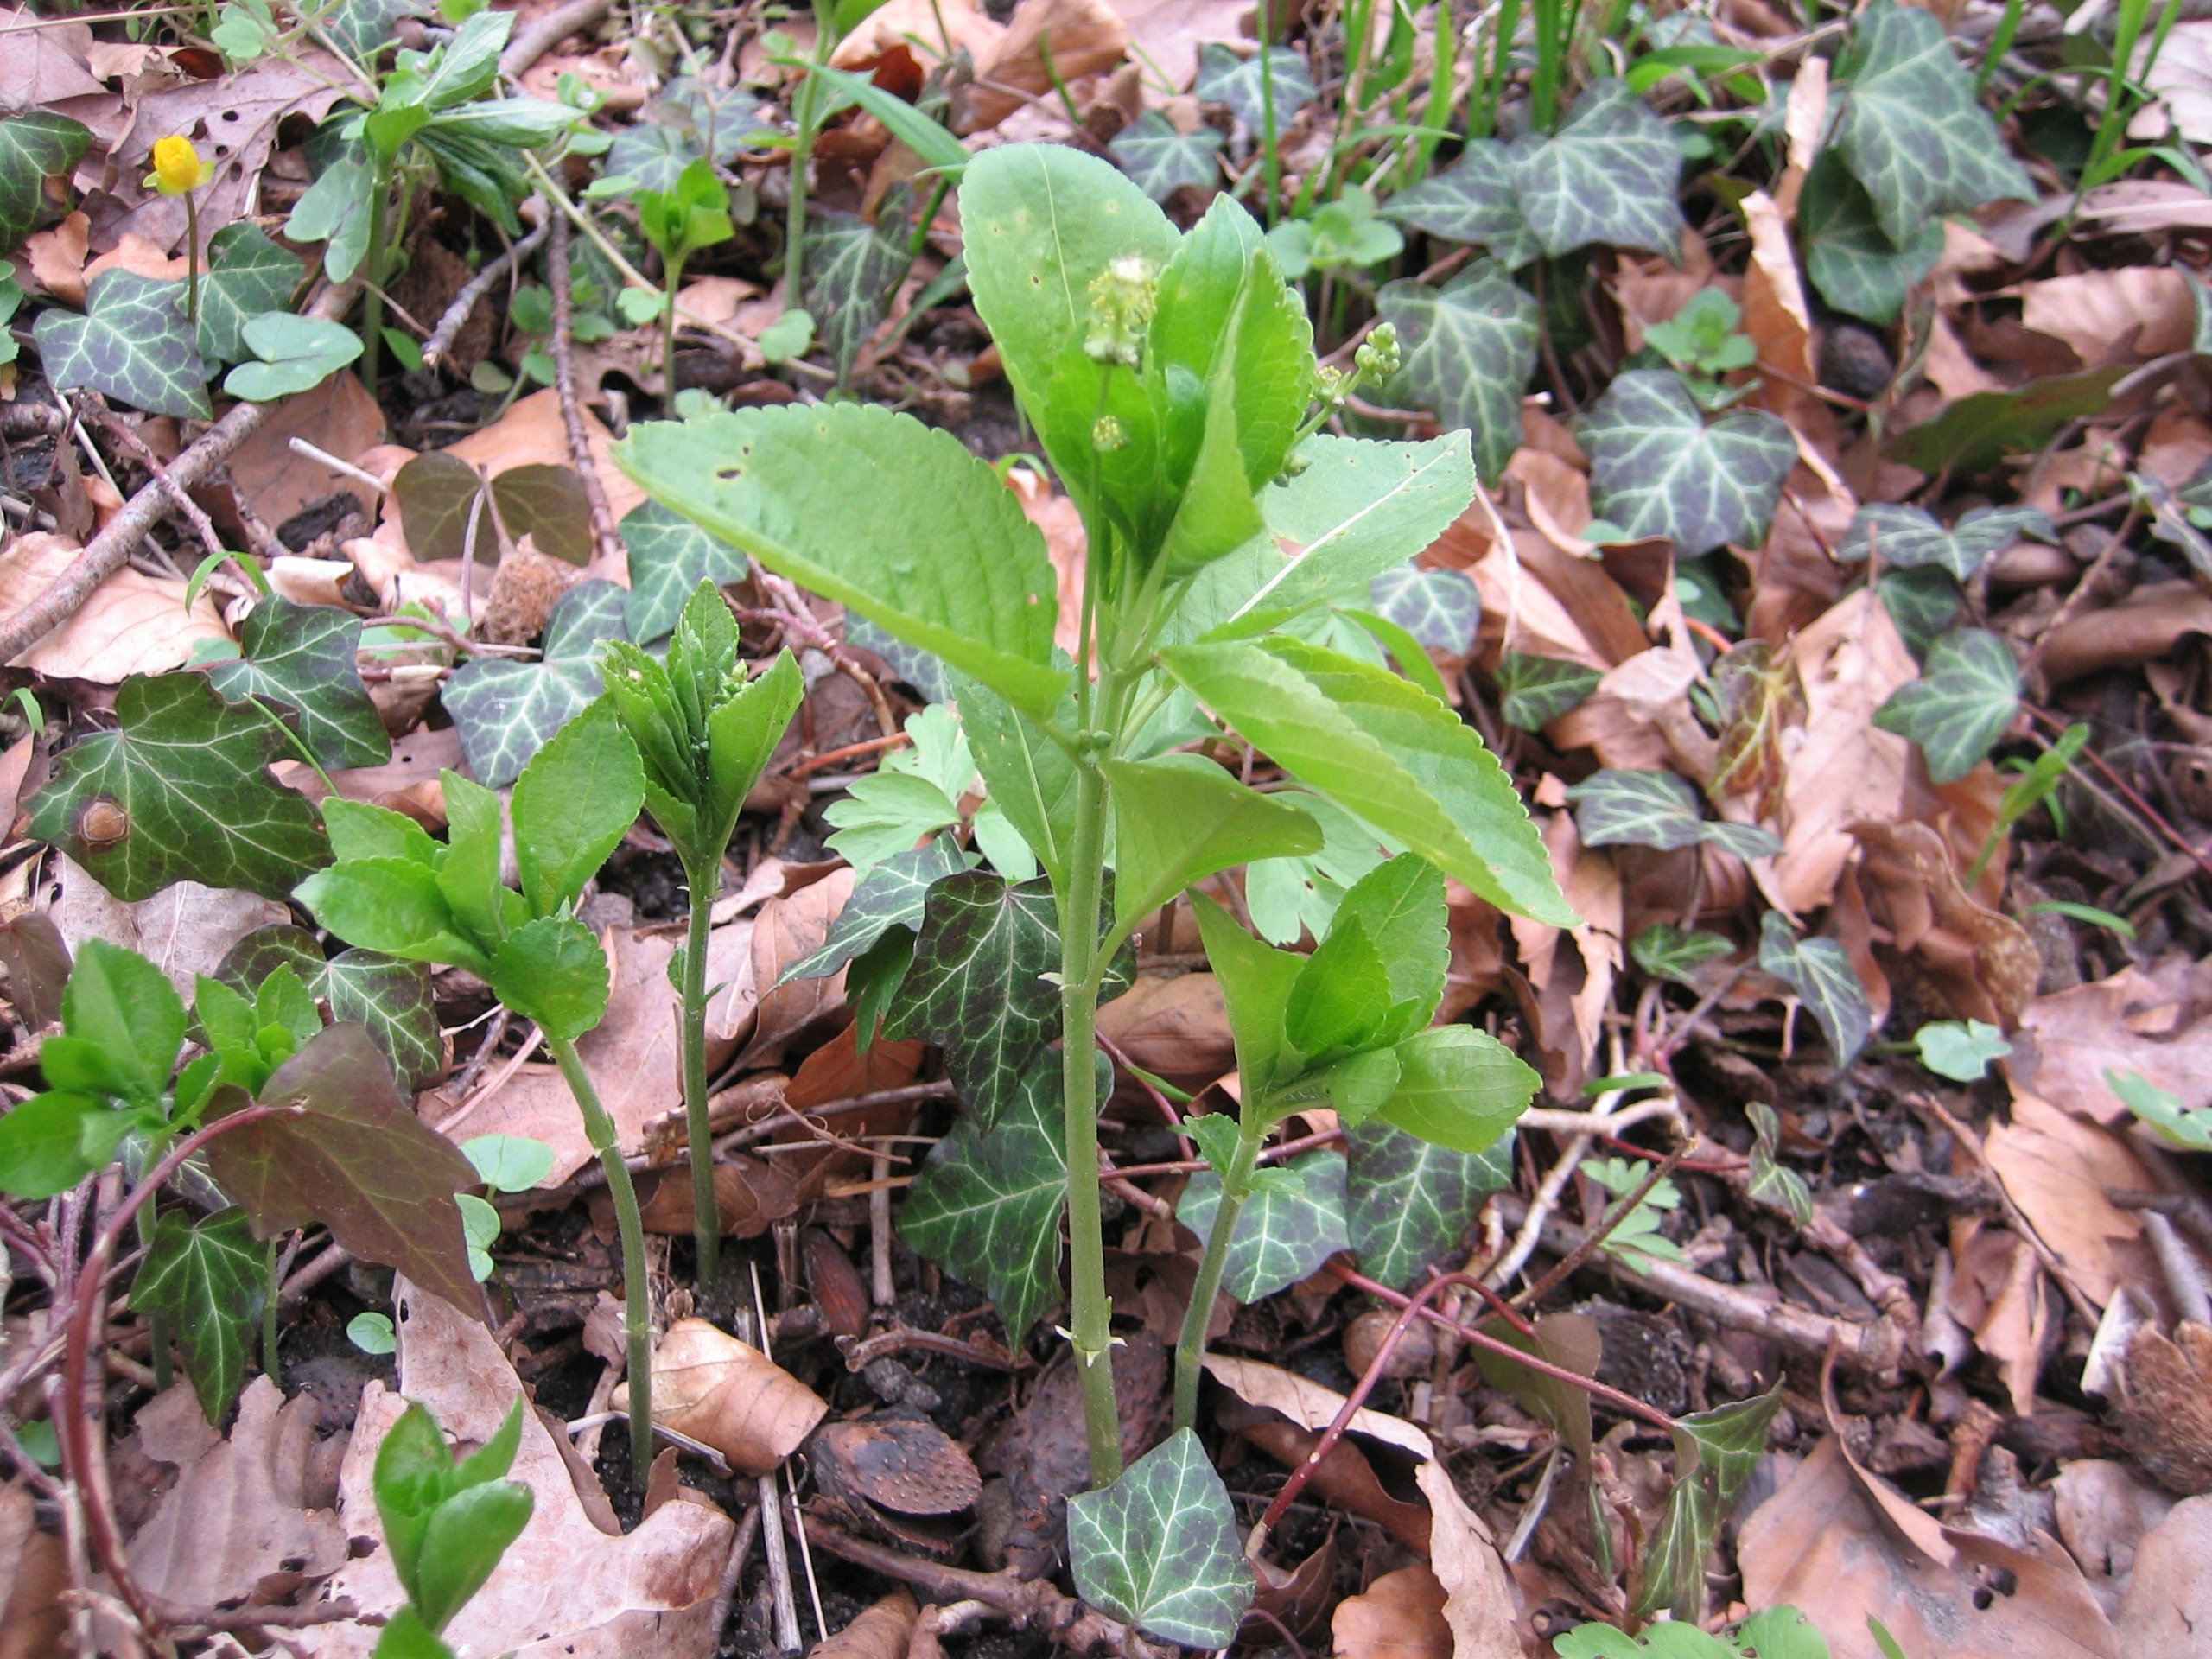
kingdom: Plantae
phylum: Tracheophyta
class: Magnoliopsida
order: Malpighiales
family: Euphorbiaceae
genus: Mercurialis
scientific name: Mercurialis perennis
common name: Almindelig bingelurt
